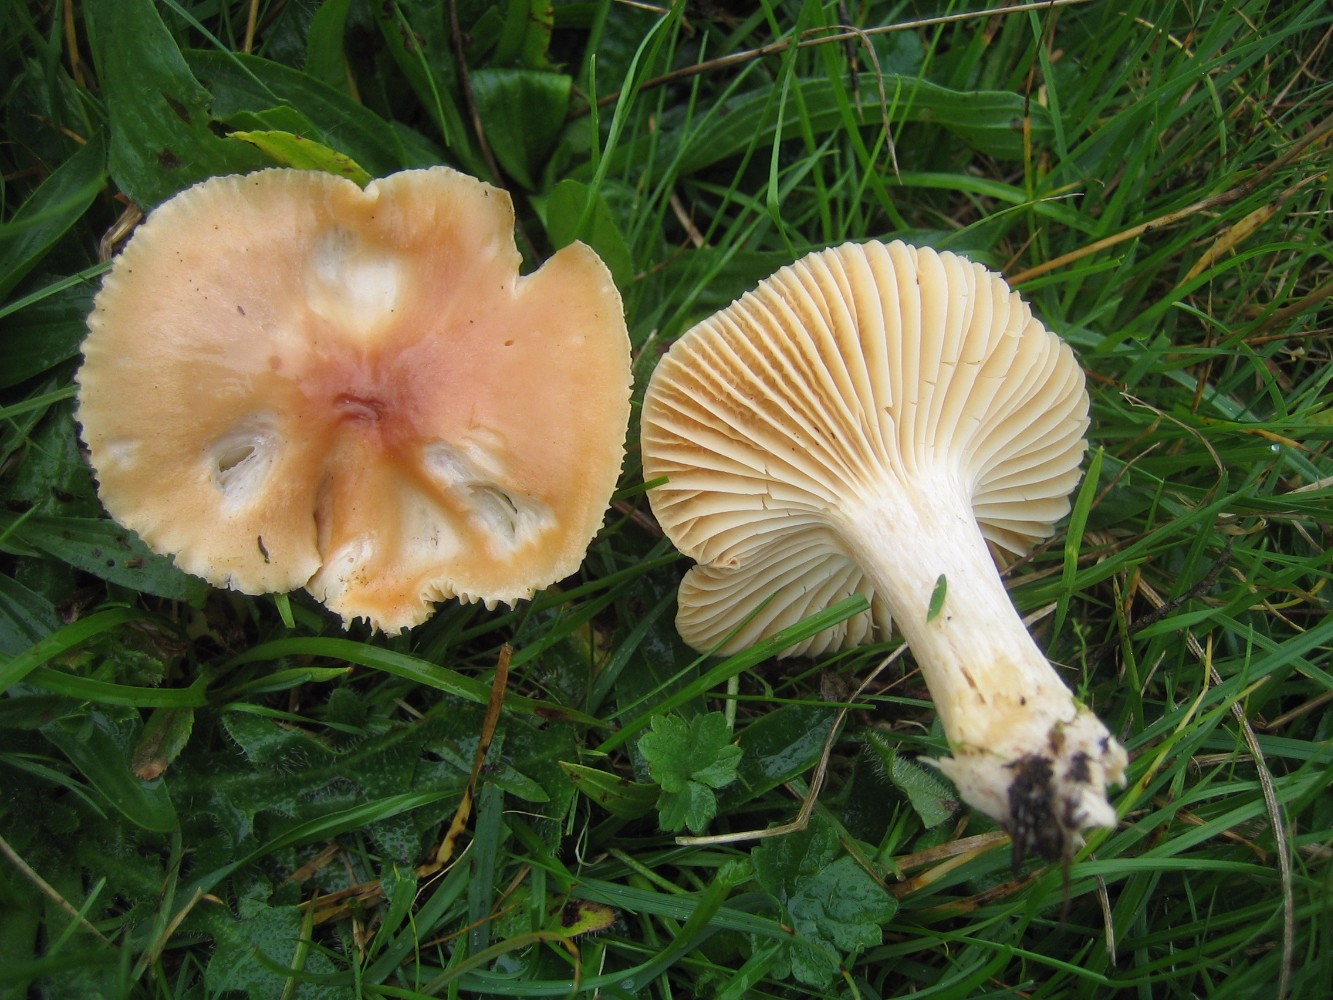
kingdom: Fungi
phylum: Basidiomycota
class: Agaricomycetes
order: Agaricales
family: Hygrophoraceae
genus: Cuphophyllus
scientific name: Cuphophyllus pratensis
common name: eng-vokshat
